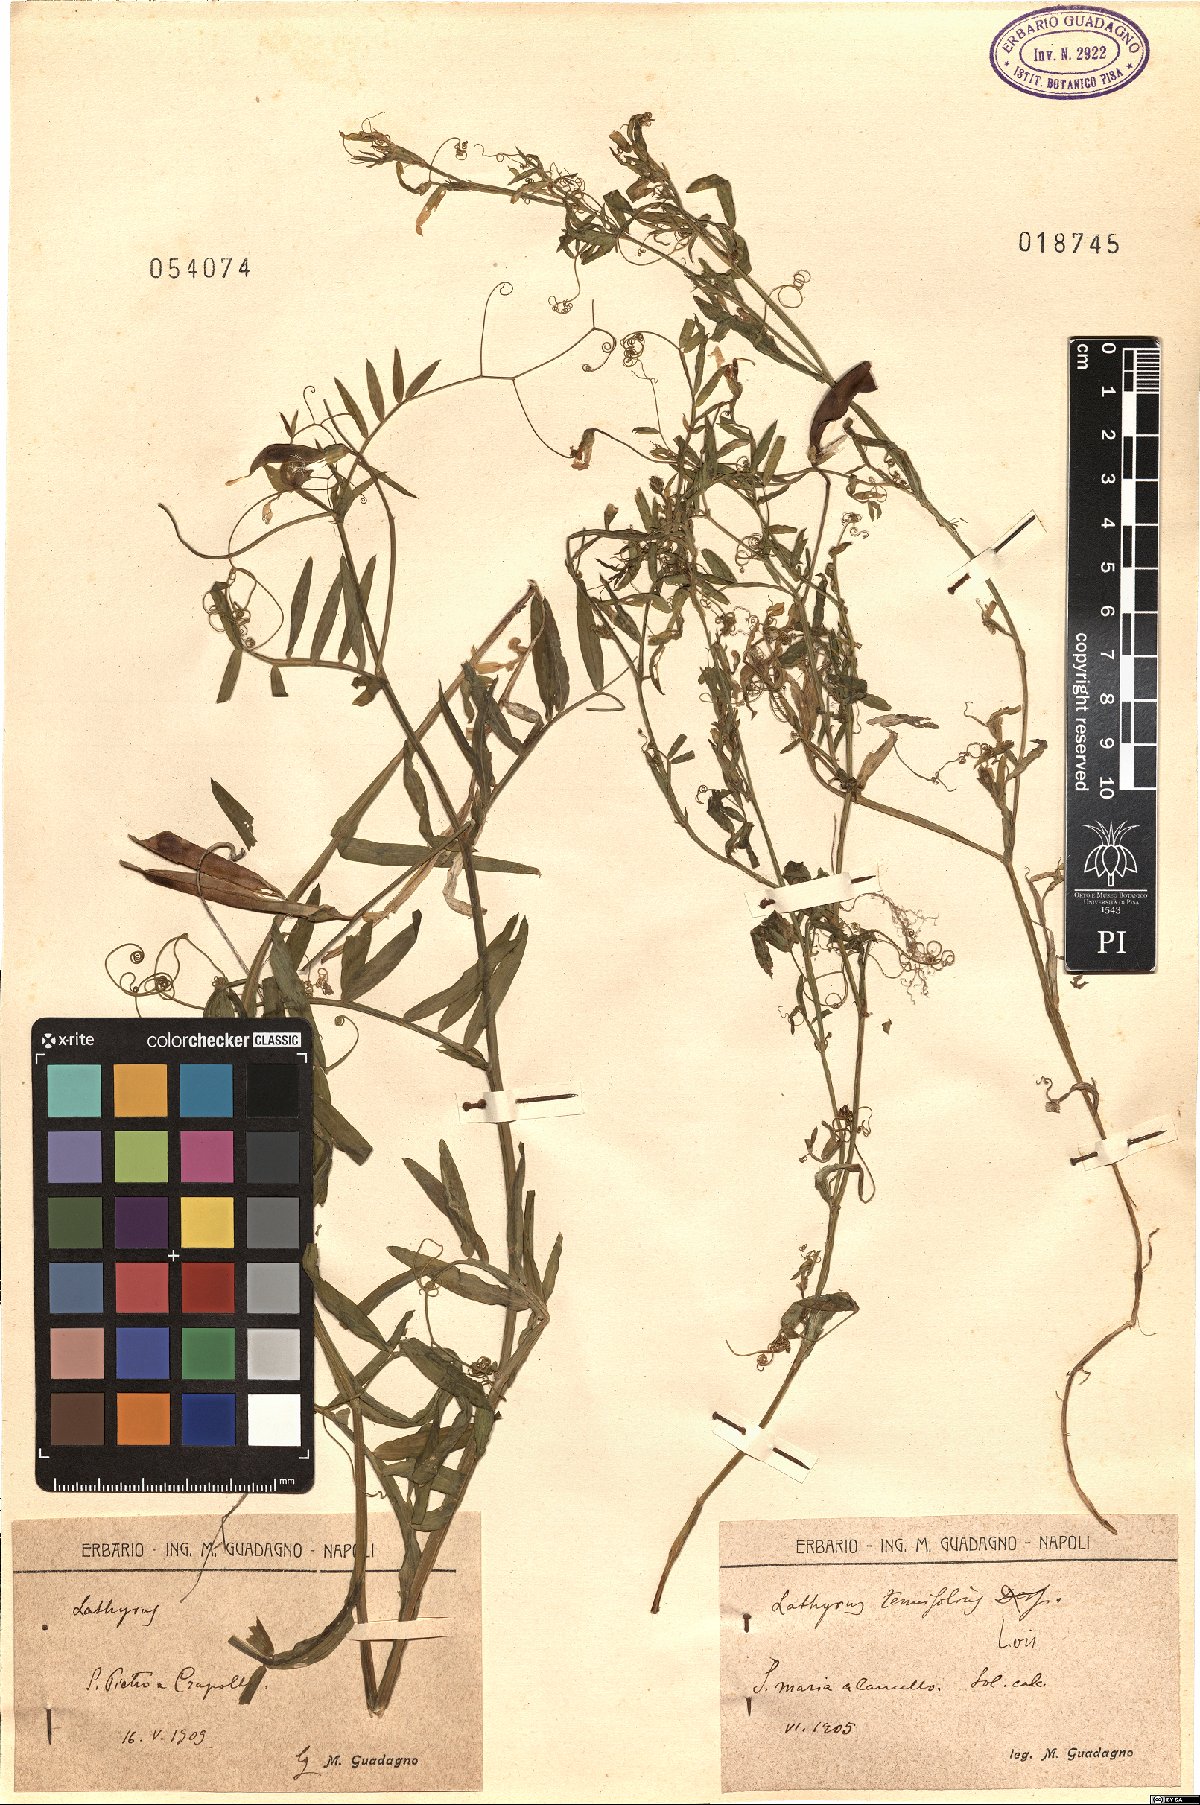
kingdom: Plantae
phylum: Tracheophyta
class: Magnoliopsida
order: Fabales
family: Fabaceae
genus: Lathyrus
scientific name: Lathyrus
